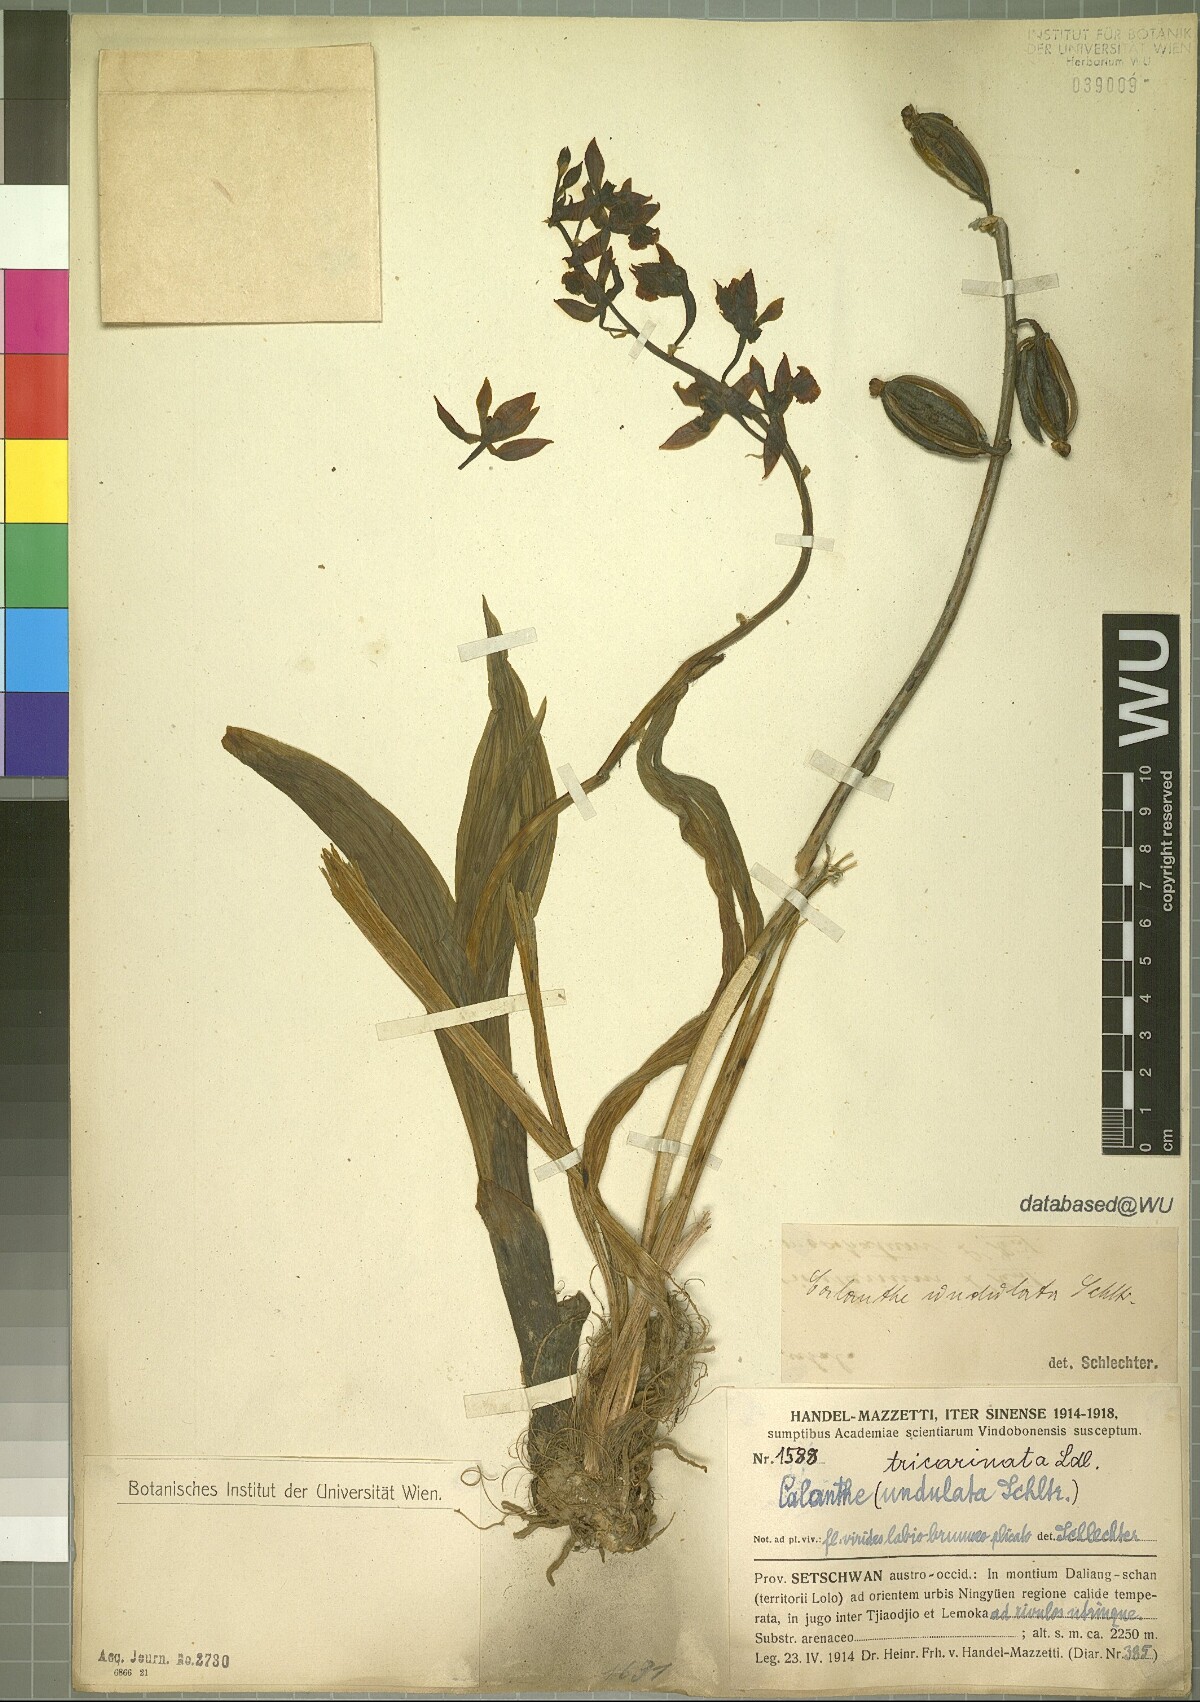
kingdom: Plantae
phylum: Tracheophyta
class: Liliopsida
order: Asparagales
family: Orchidaceae
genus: Calanthe
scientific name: Calanthe tricarinata
